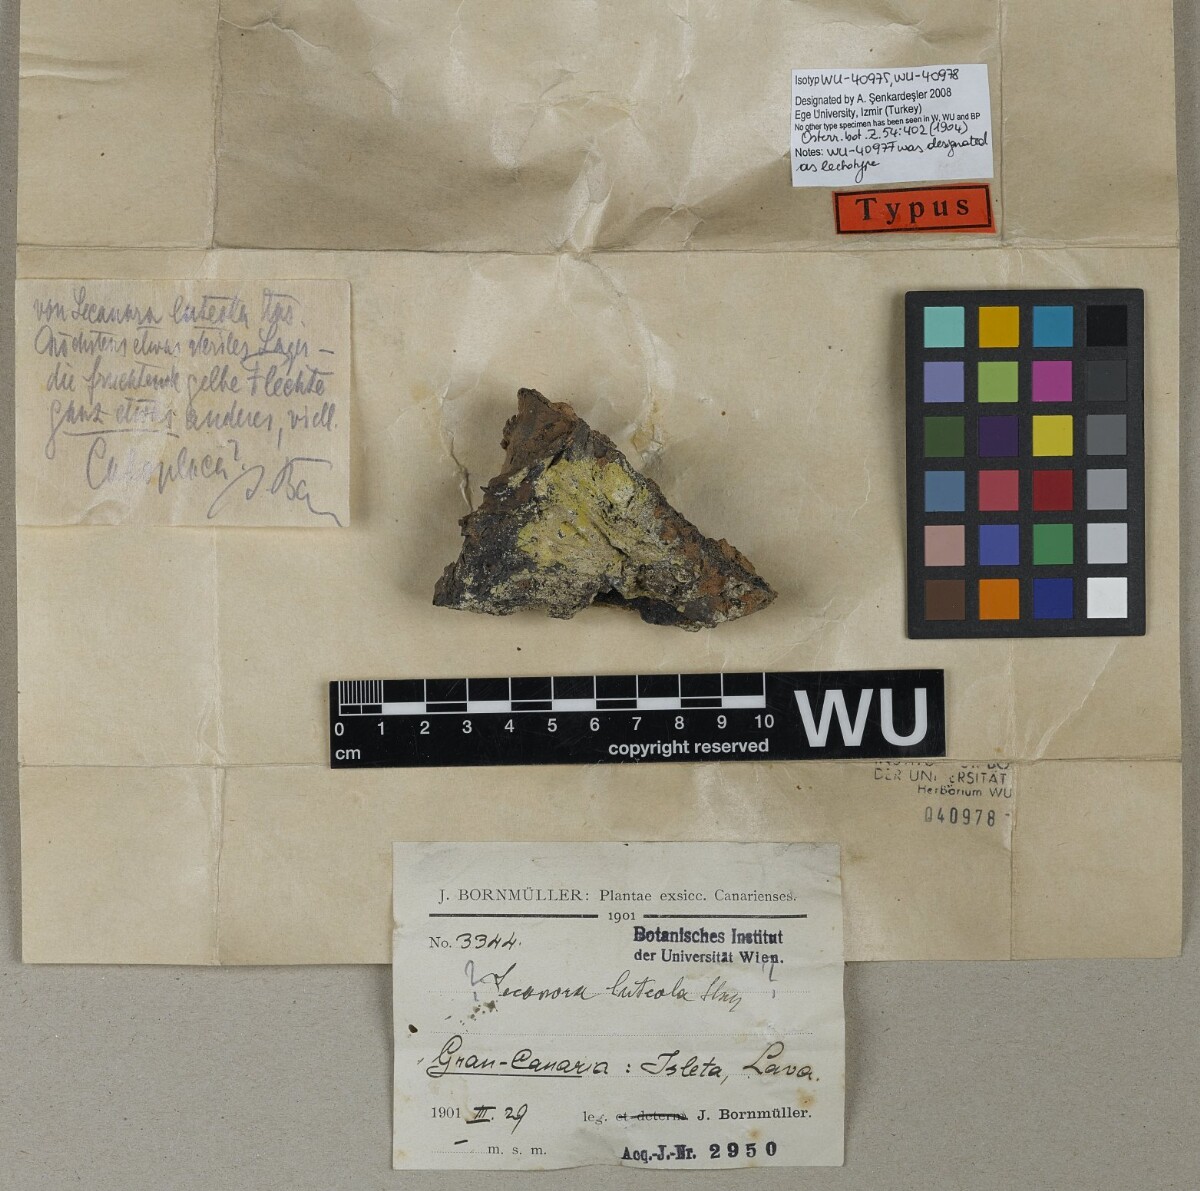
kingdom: Fungi
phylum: Ascomycota
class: Lecanoromycetes
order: Lecanorales
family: Lecanoraceae
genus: Lecanora
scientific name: Lecanora
